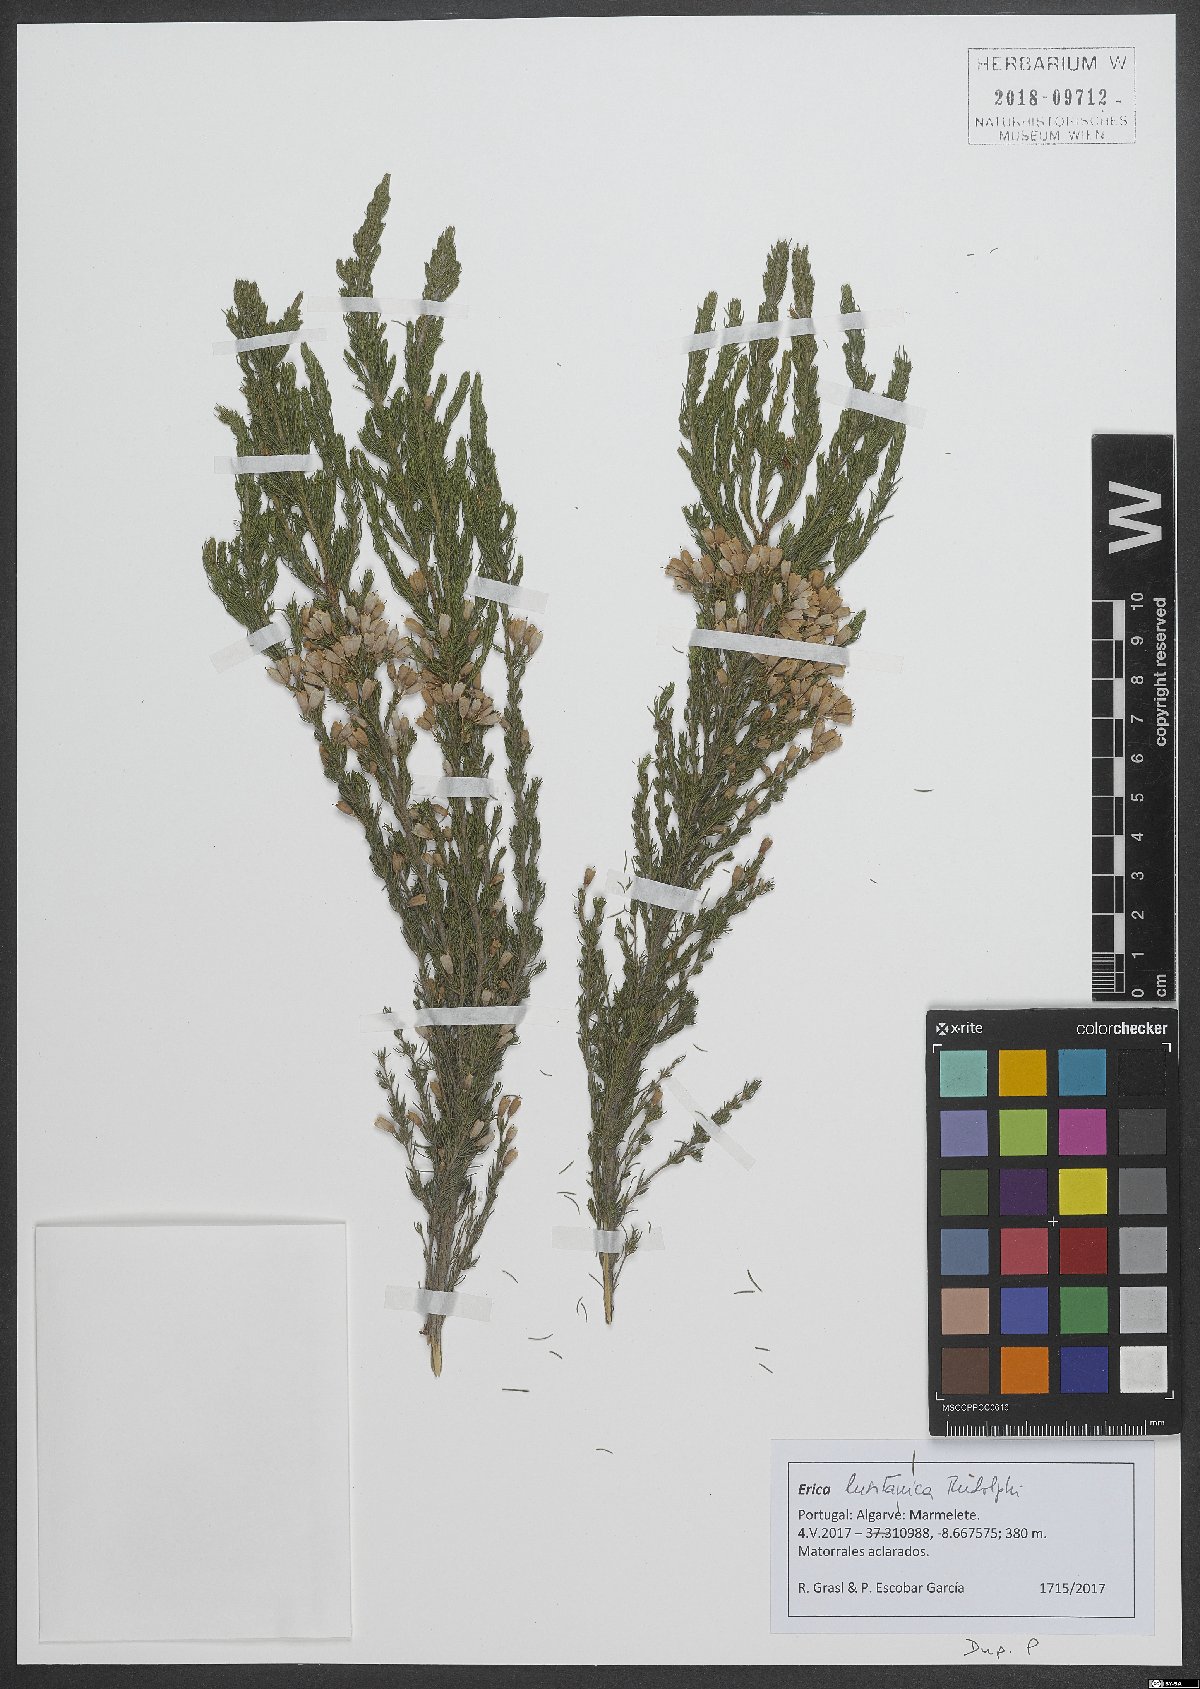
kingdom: Plantae
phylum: Tracheophyta
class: Magnoliopsida
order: Ericales
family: Ericaceae
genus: Erica
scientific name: Erica lusitanica
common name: Spanish heath
